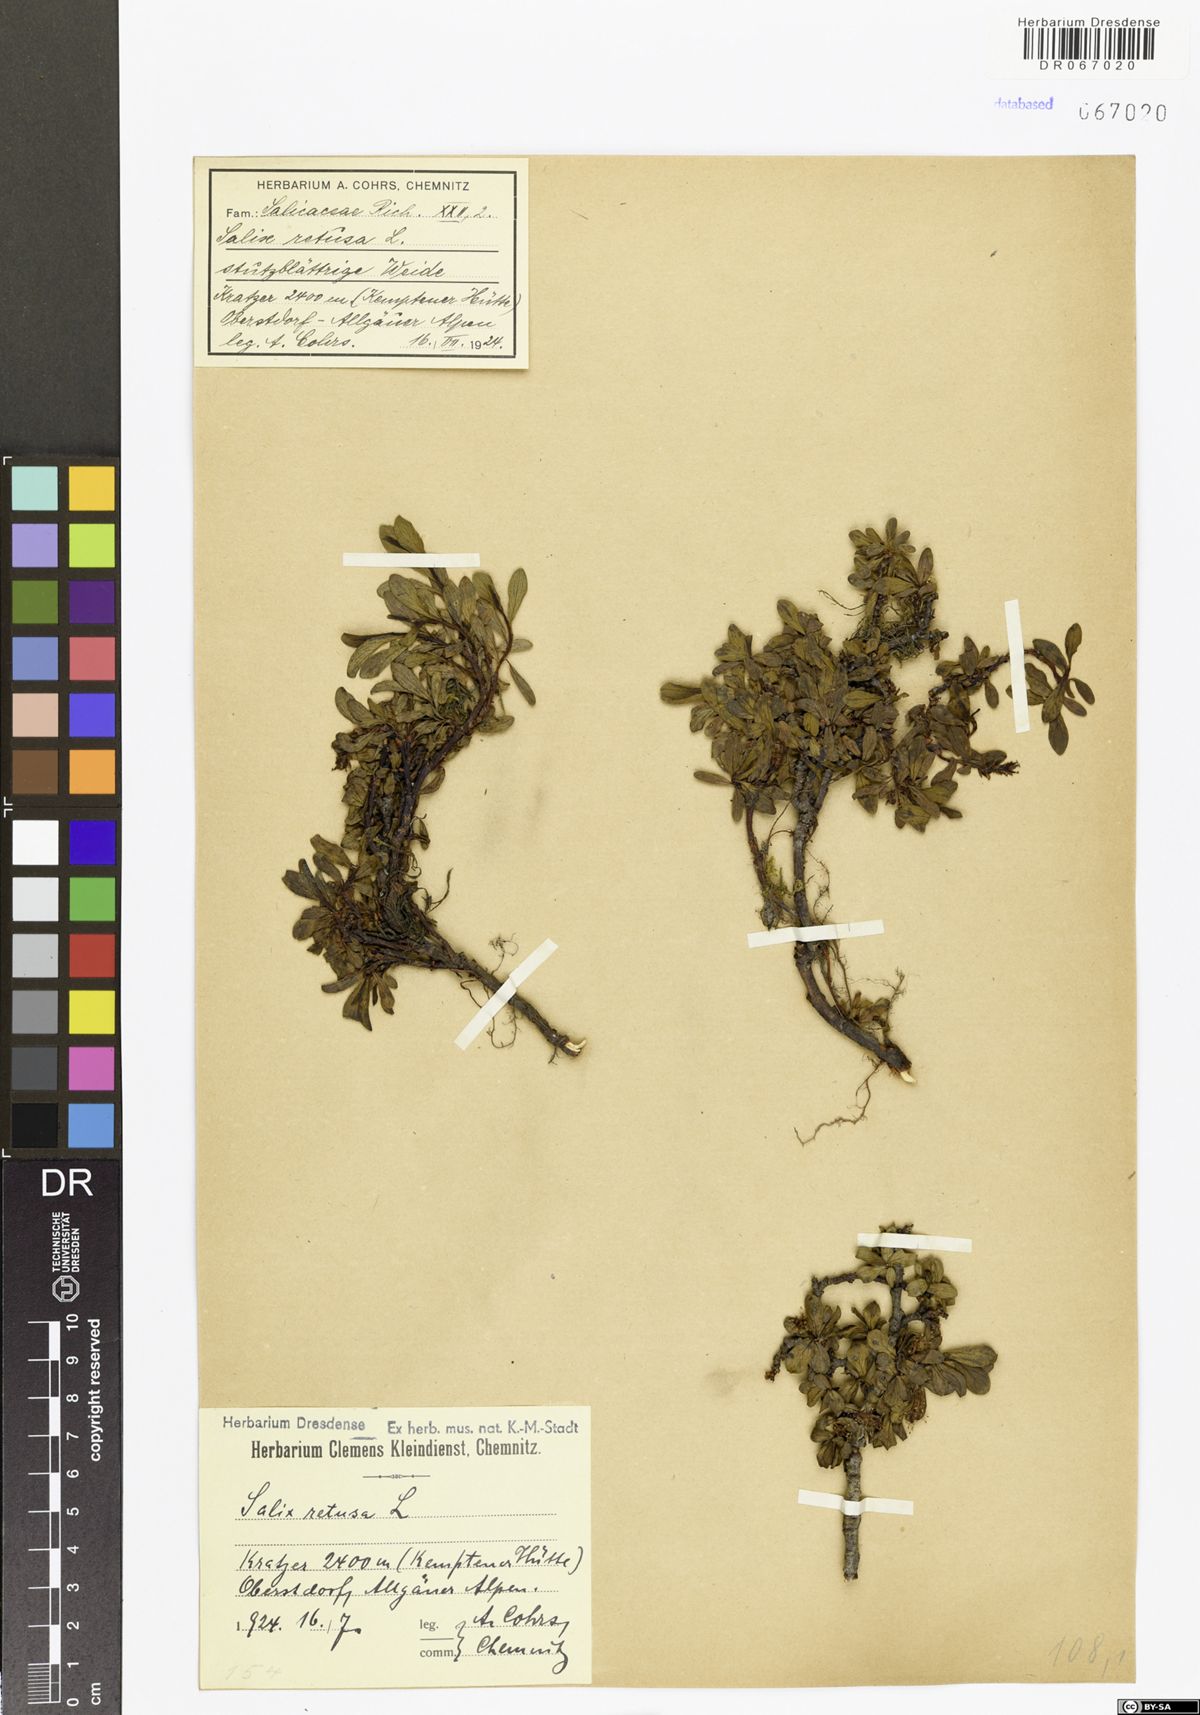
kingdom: Plantae
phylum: Tracheophyta
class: Magnoliopsida
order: Malpighiales
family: Salicaceae
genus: Salix
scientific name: Salix retusa
